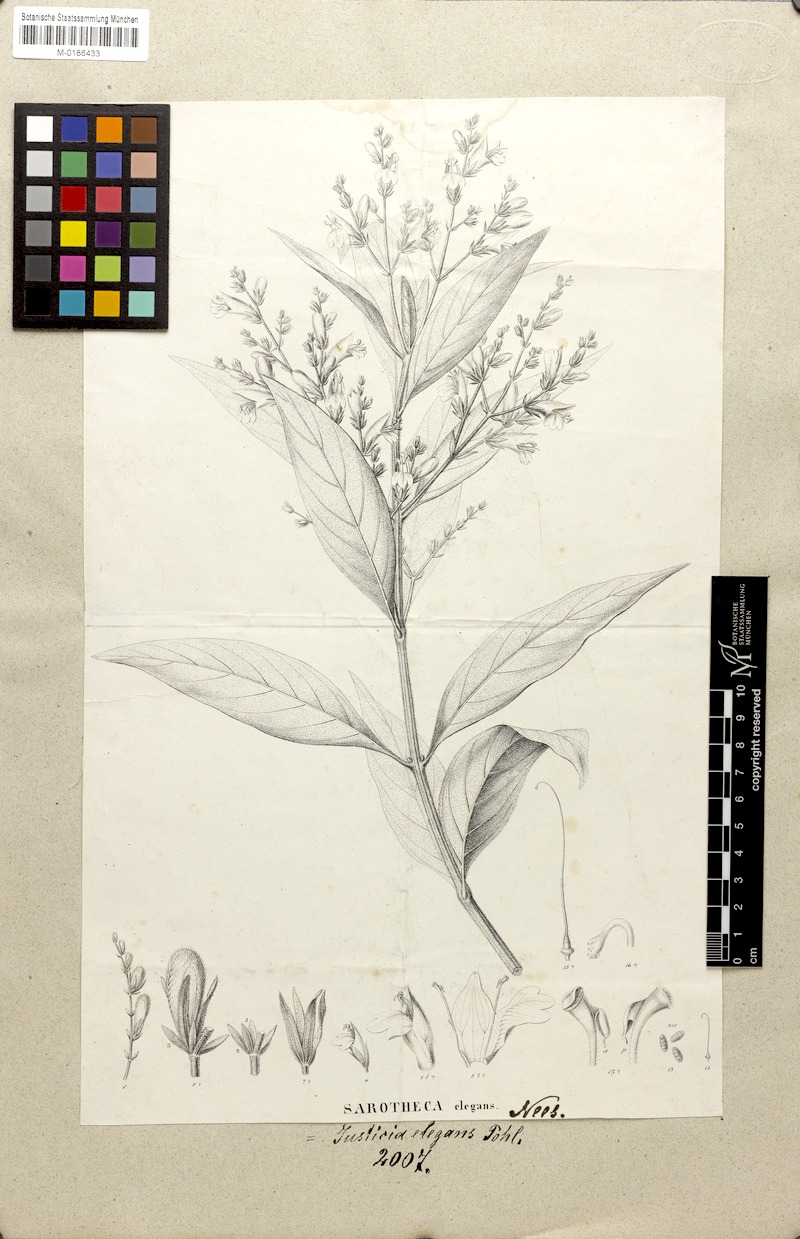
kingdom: Plantae
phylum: Tracheophyta
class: Magnoliopsida
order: Lamiales
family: Acanthaceae
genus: Justicia
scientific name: Justicia glutinosa
